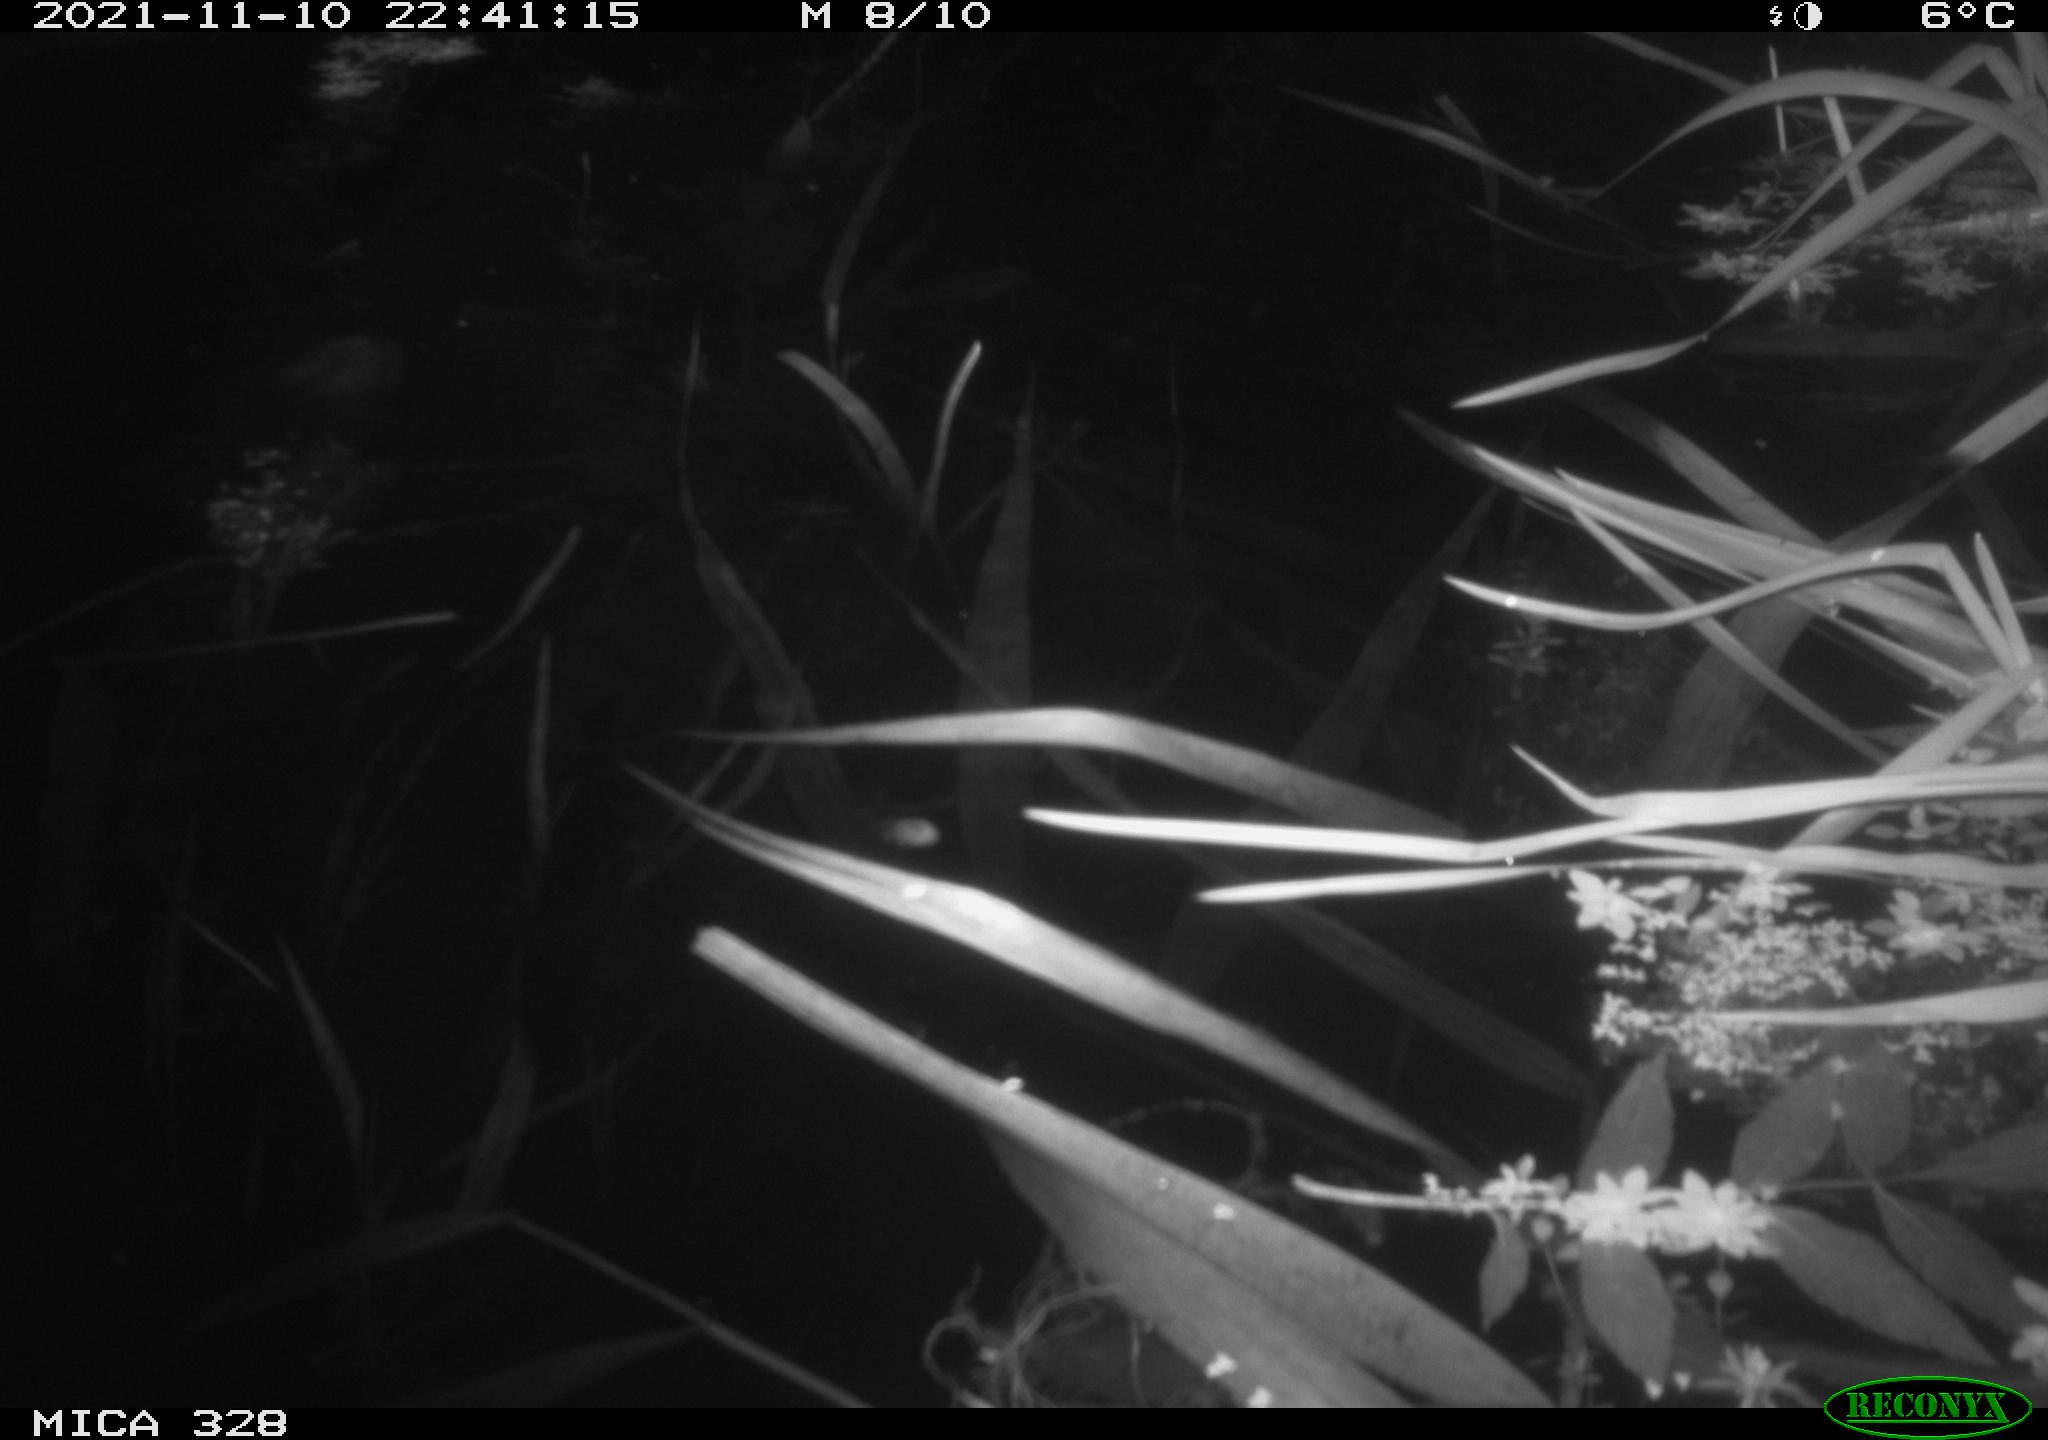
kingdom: Animalia
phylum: Chordata
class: Mammalia
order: Rodentia
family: Cricetidae
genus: Ondatra
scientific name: Ondatra zibethicus
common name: Muskrat
